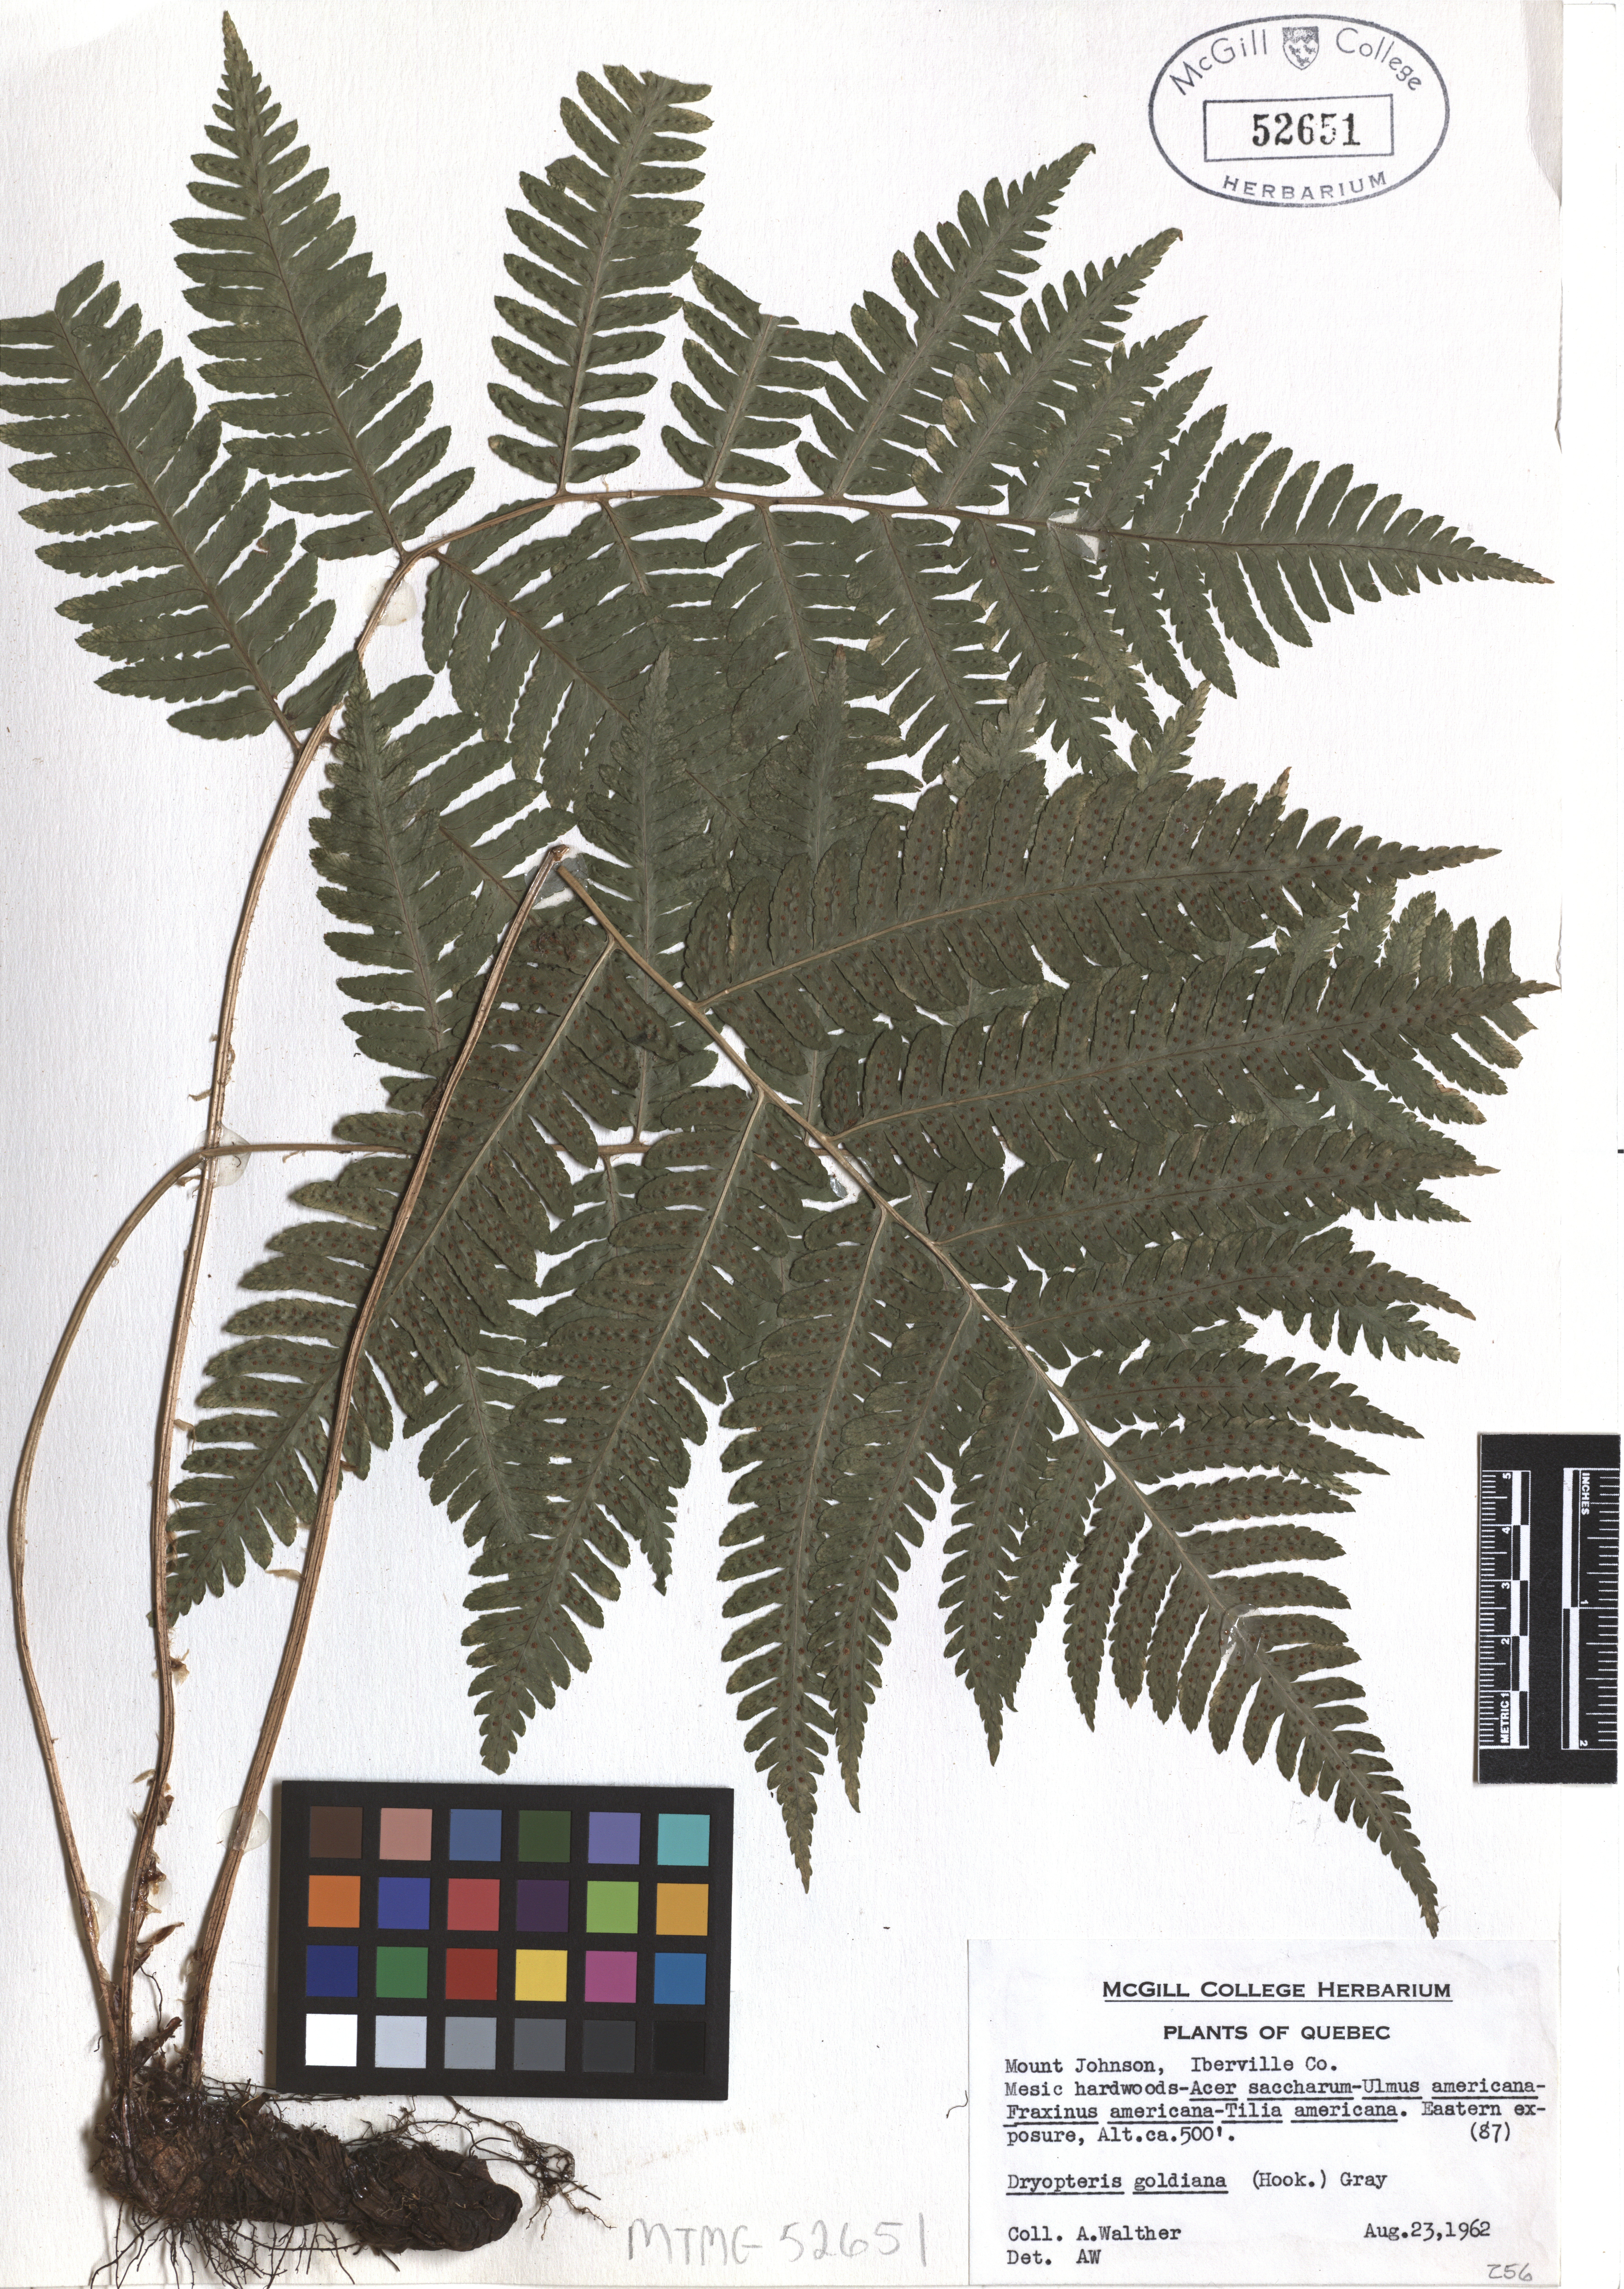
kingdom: Plantae
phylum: Tracheophyta
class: Polypodiopsida
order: Polypodiales
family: Dryopteridaceae
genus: Dryopteris
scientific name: Dryopteris goeldiana
